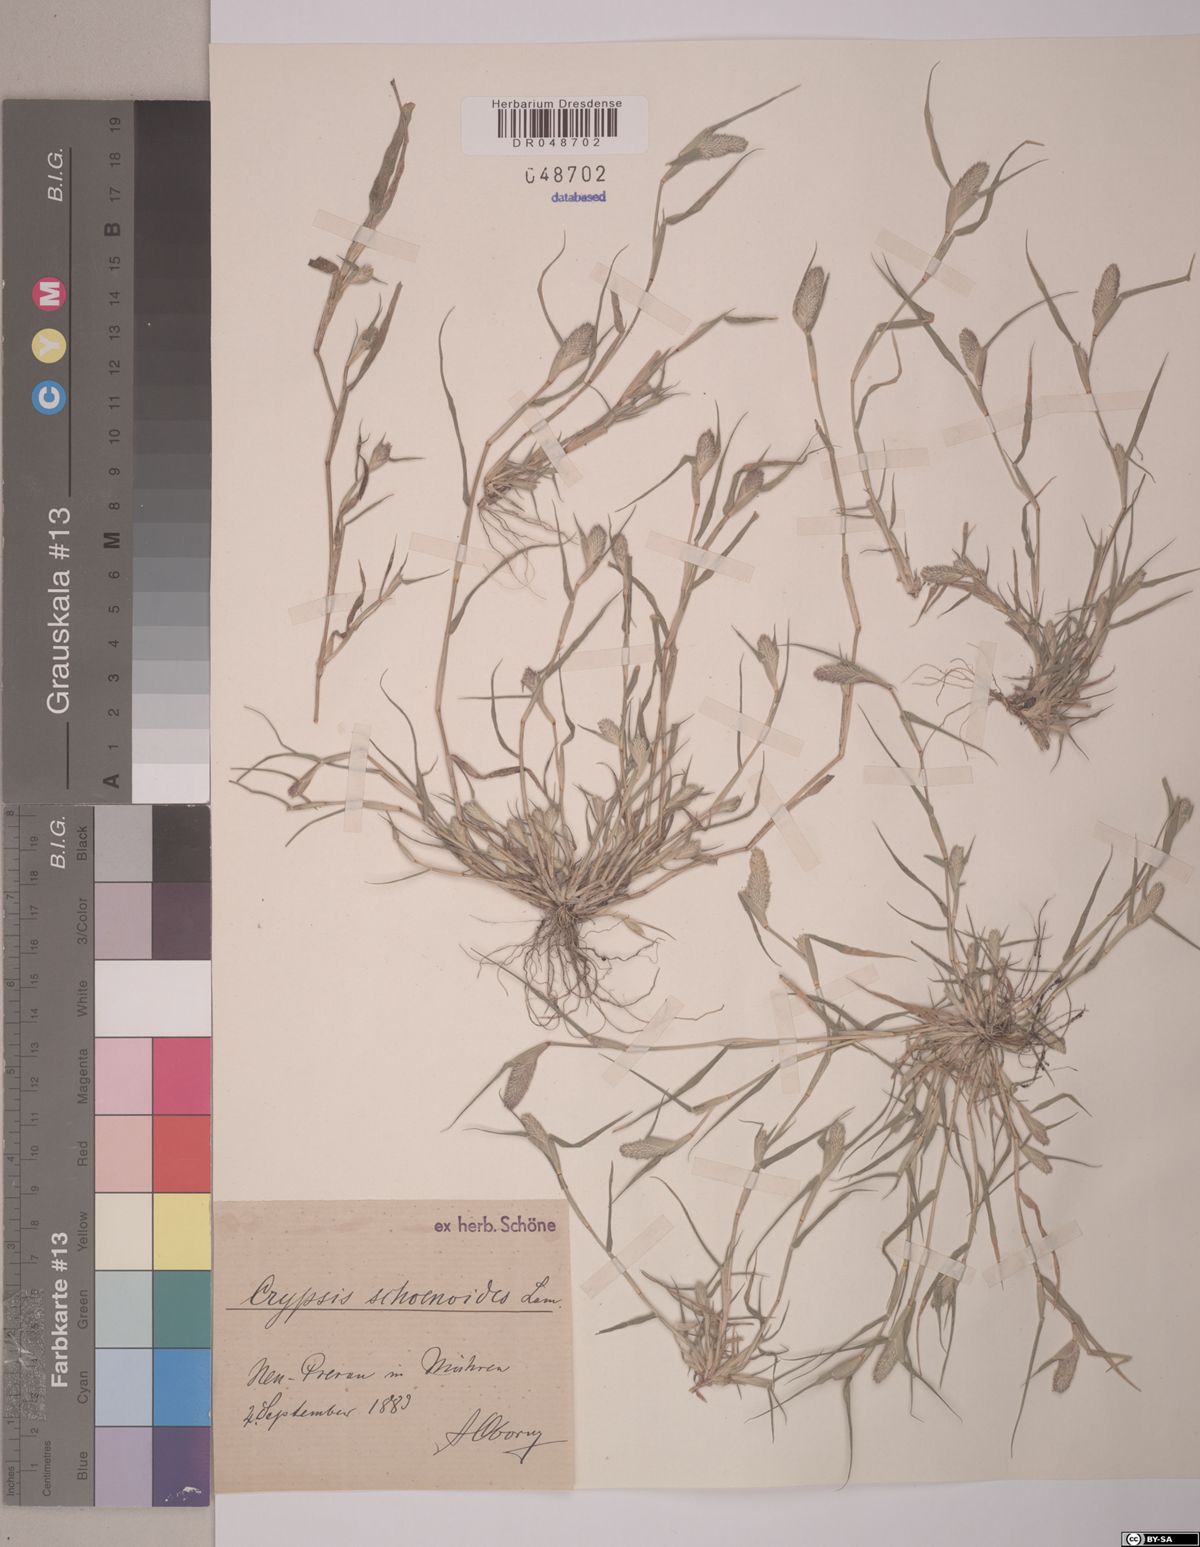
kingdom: Plantae
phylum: Tracheophyta
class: Liliopsida
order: Poales
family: Poaceae
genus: Sporobolus
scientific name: Sporobolus schoenoides
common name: Rush-like timothy
